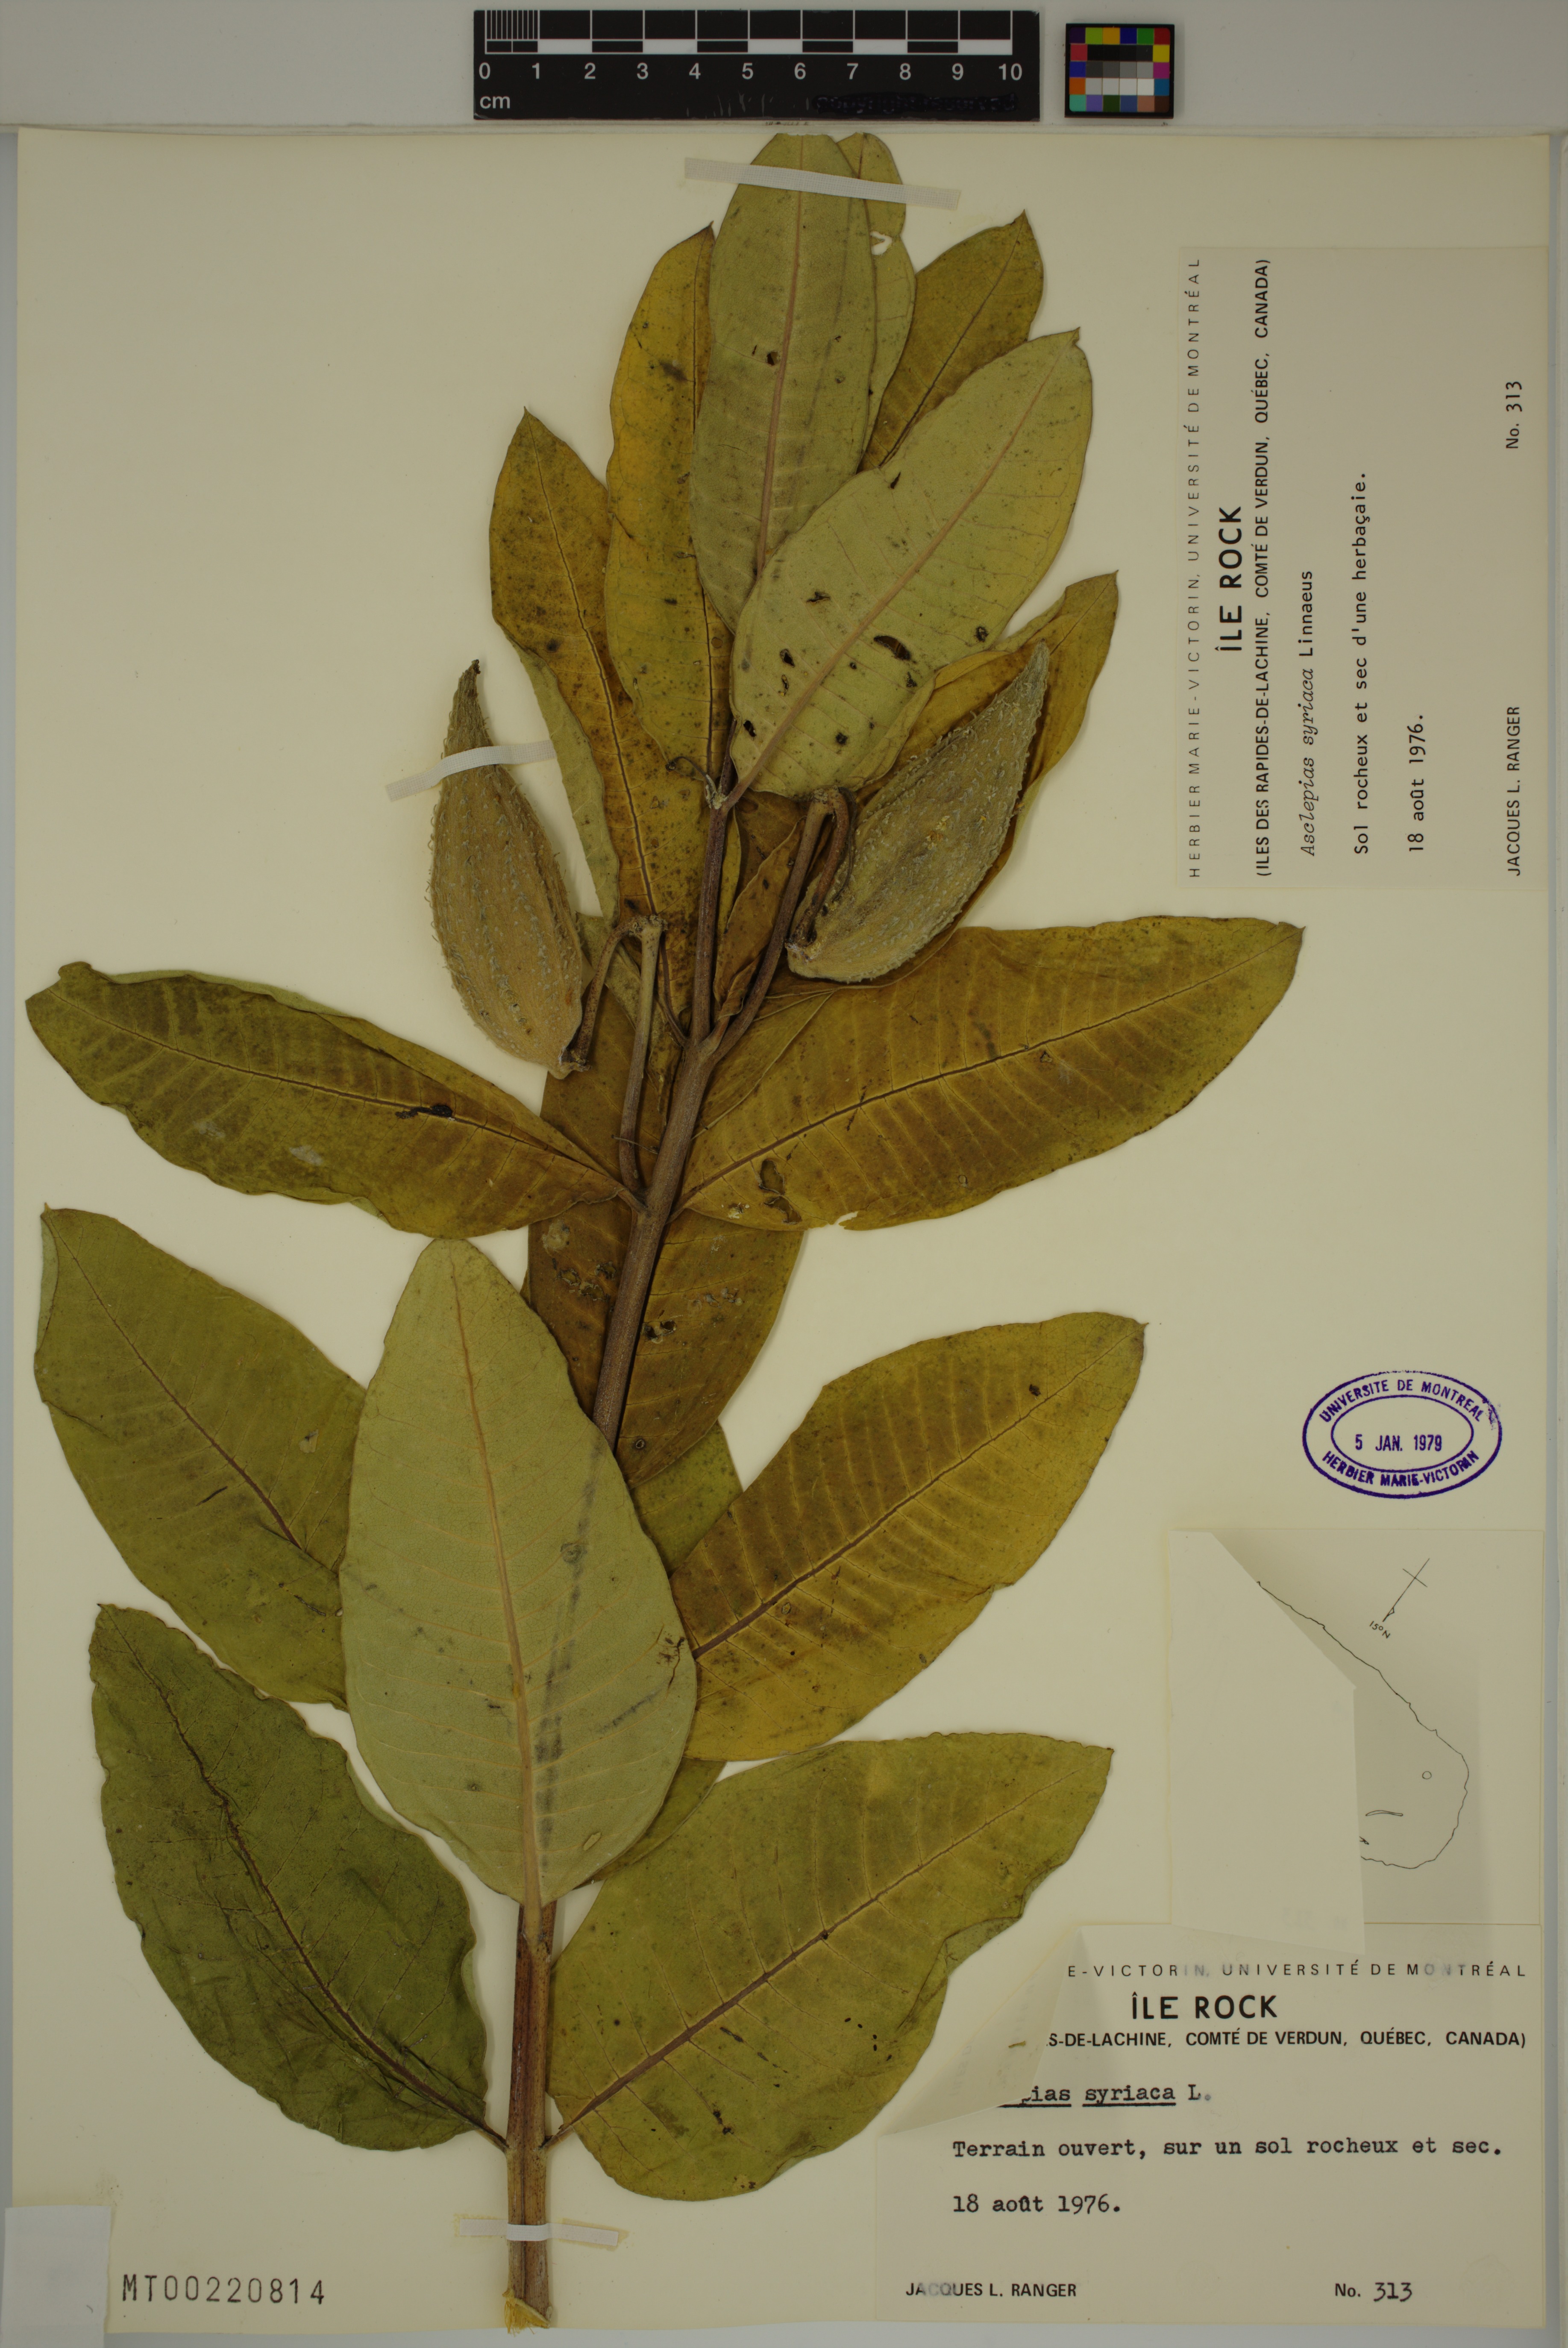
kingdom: Plantae
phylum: Tracheophyta
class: Magnoliopsida
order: Gentianales
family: Apocynaceae
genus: Asclepias
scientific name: Asclepias syriaca
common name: Common milkweed
